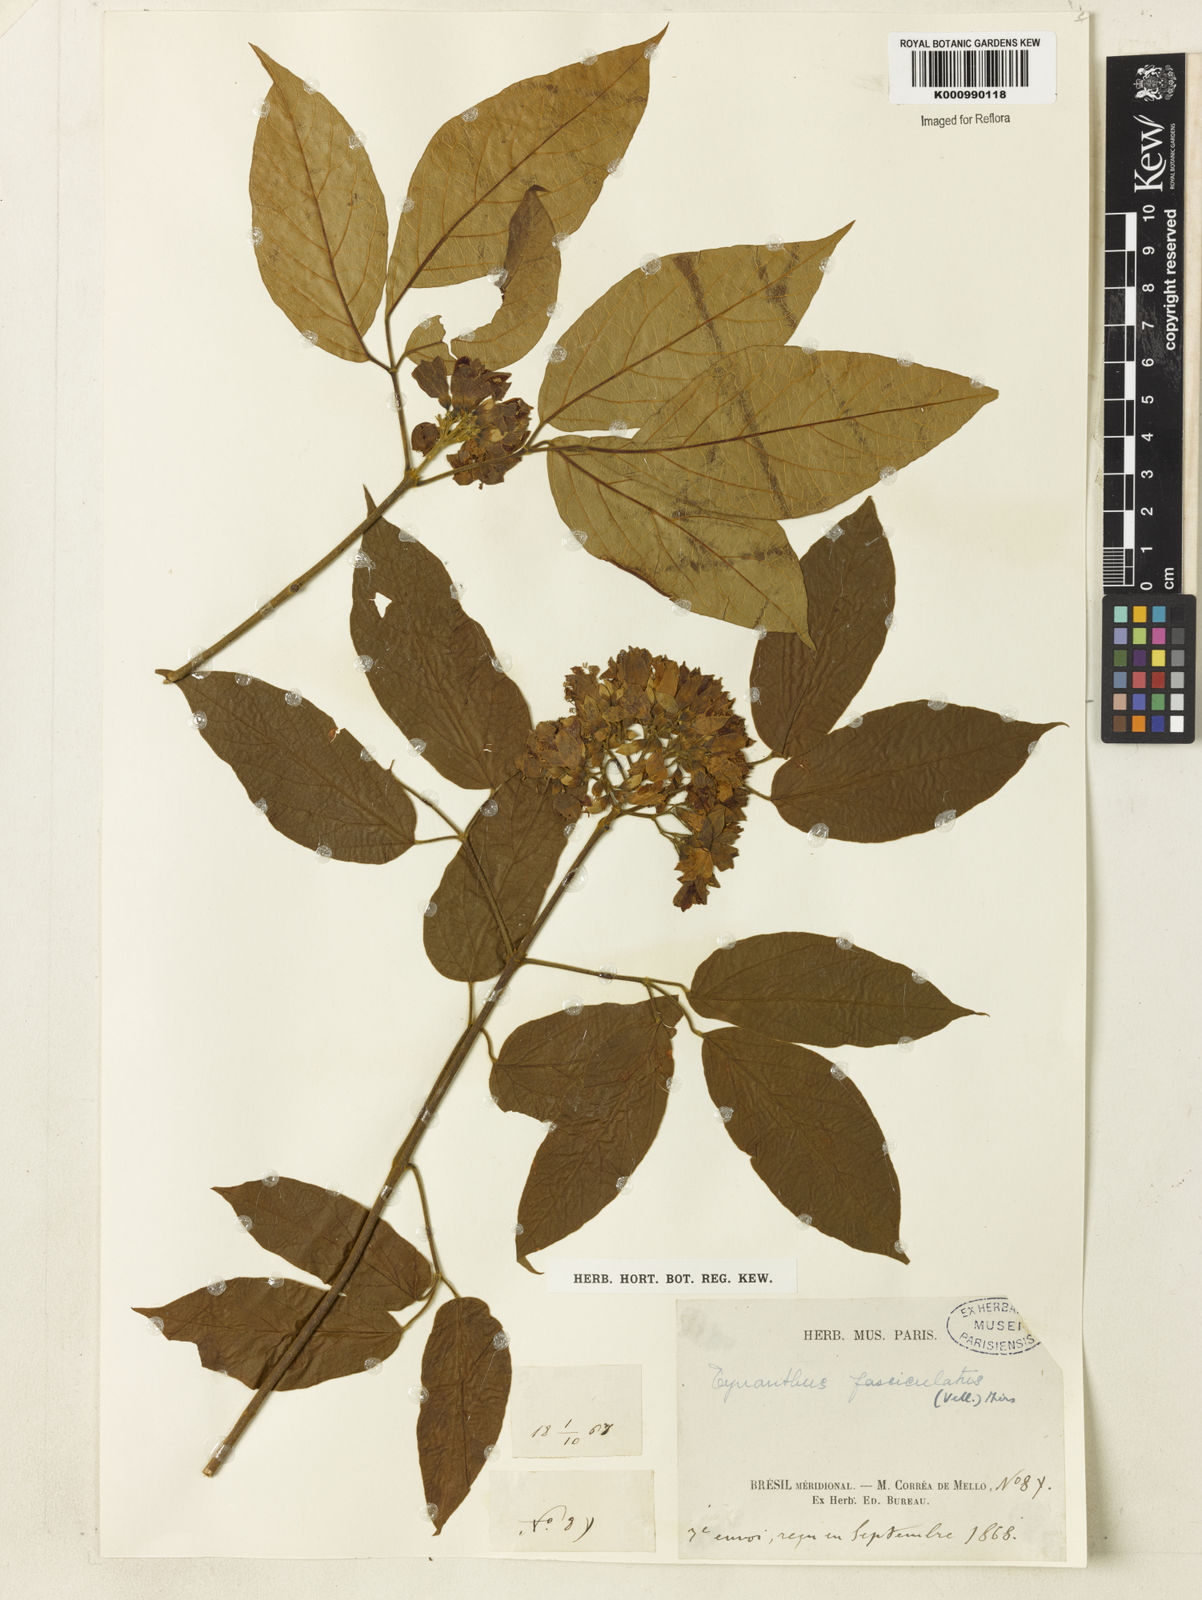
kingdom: Plantae
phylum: Tracheophyta
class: Magnoliopsida
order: Lamiales
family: Bignoniaceae
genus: Tynanthus
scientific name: Tynanthus fasciculatus
